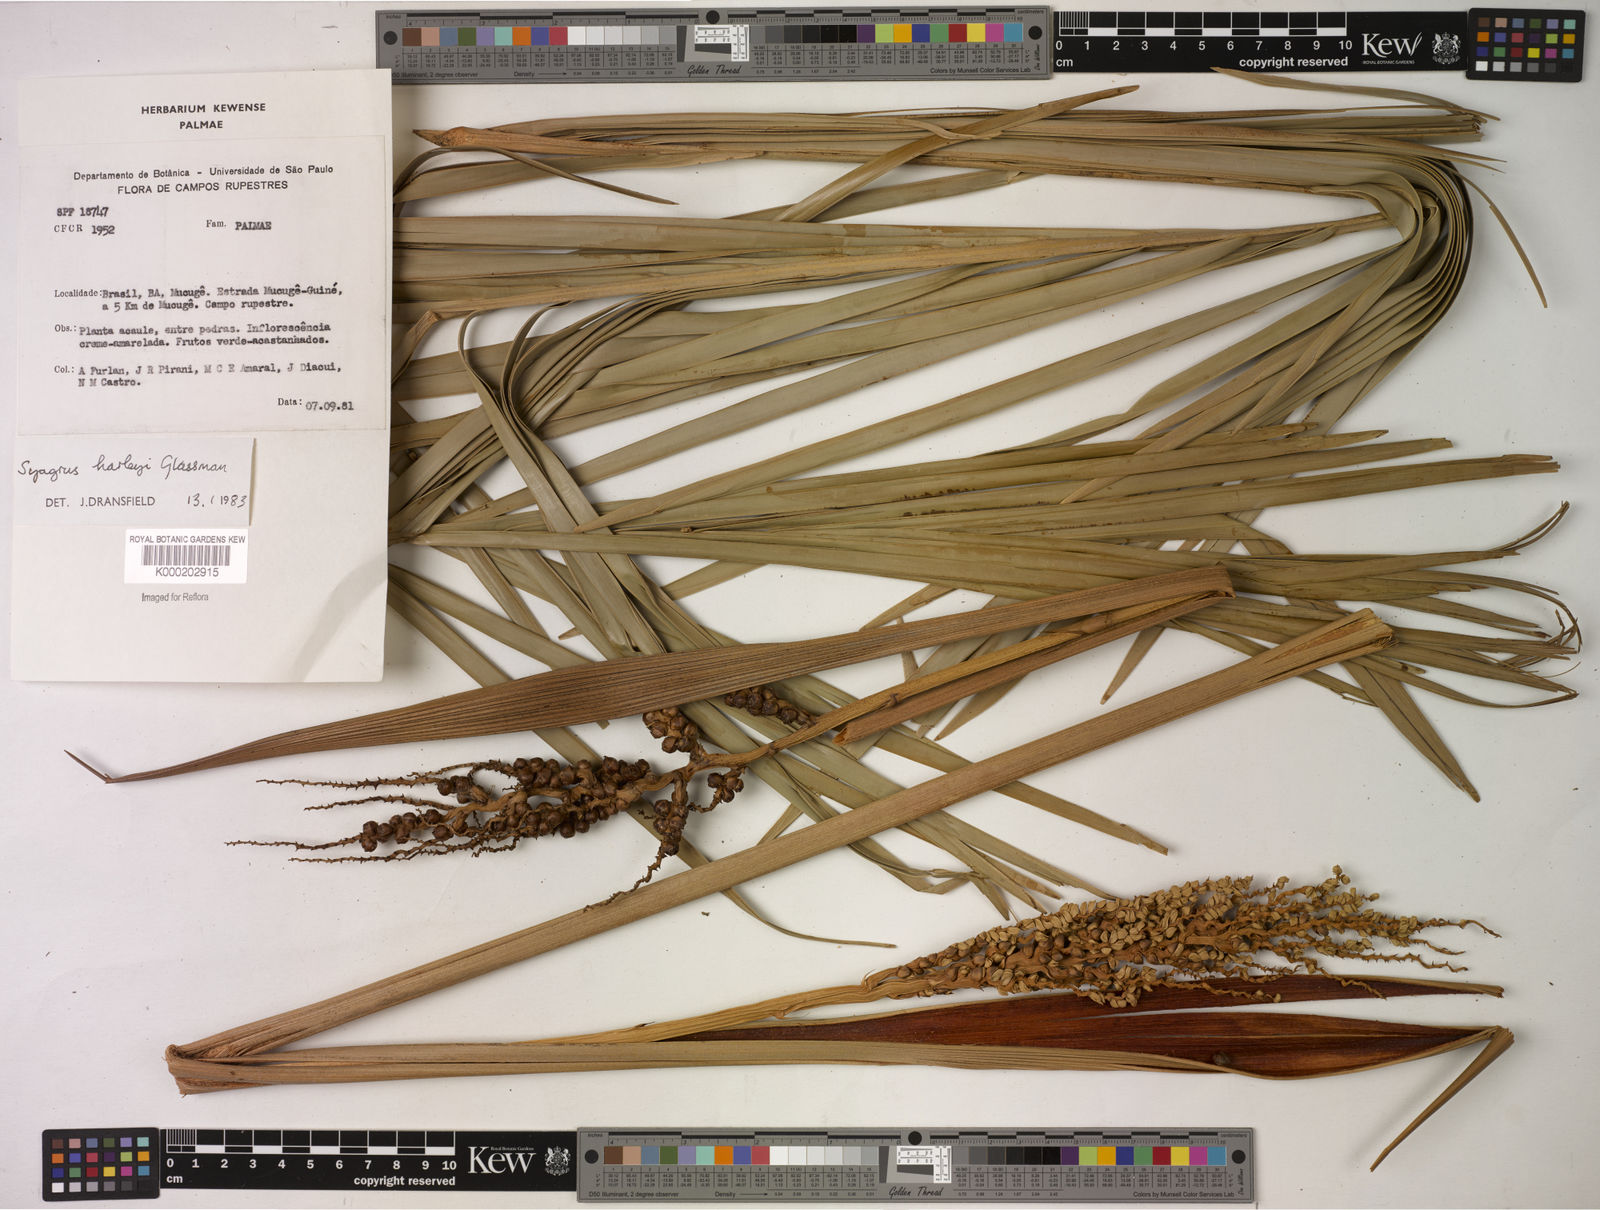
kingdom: Plantae
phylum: Tracheophyta
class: Liliopsida
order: Arecales
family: Arecaceae
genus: Syagrus
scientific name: Syagrus harleyi
